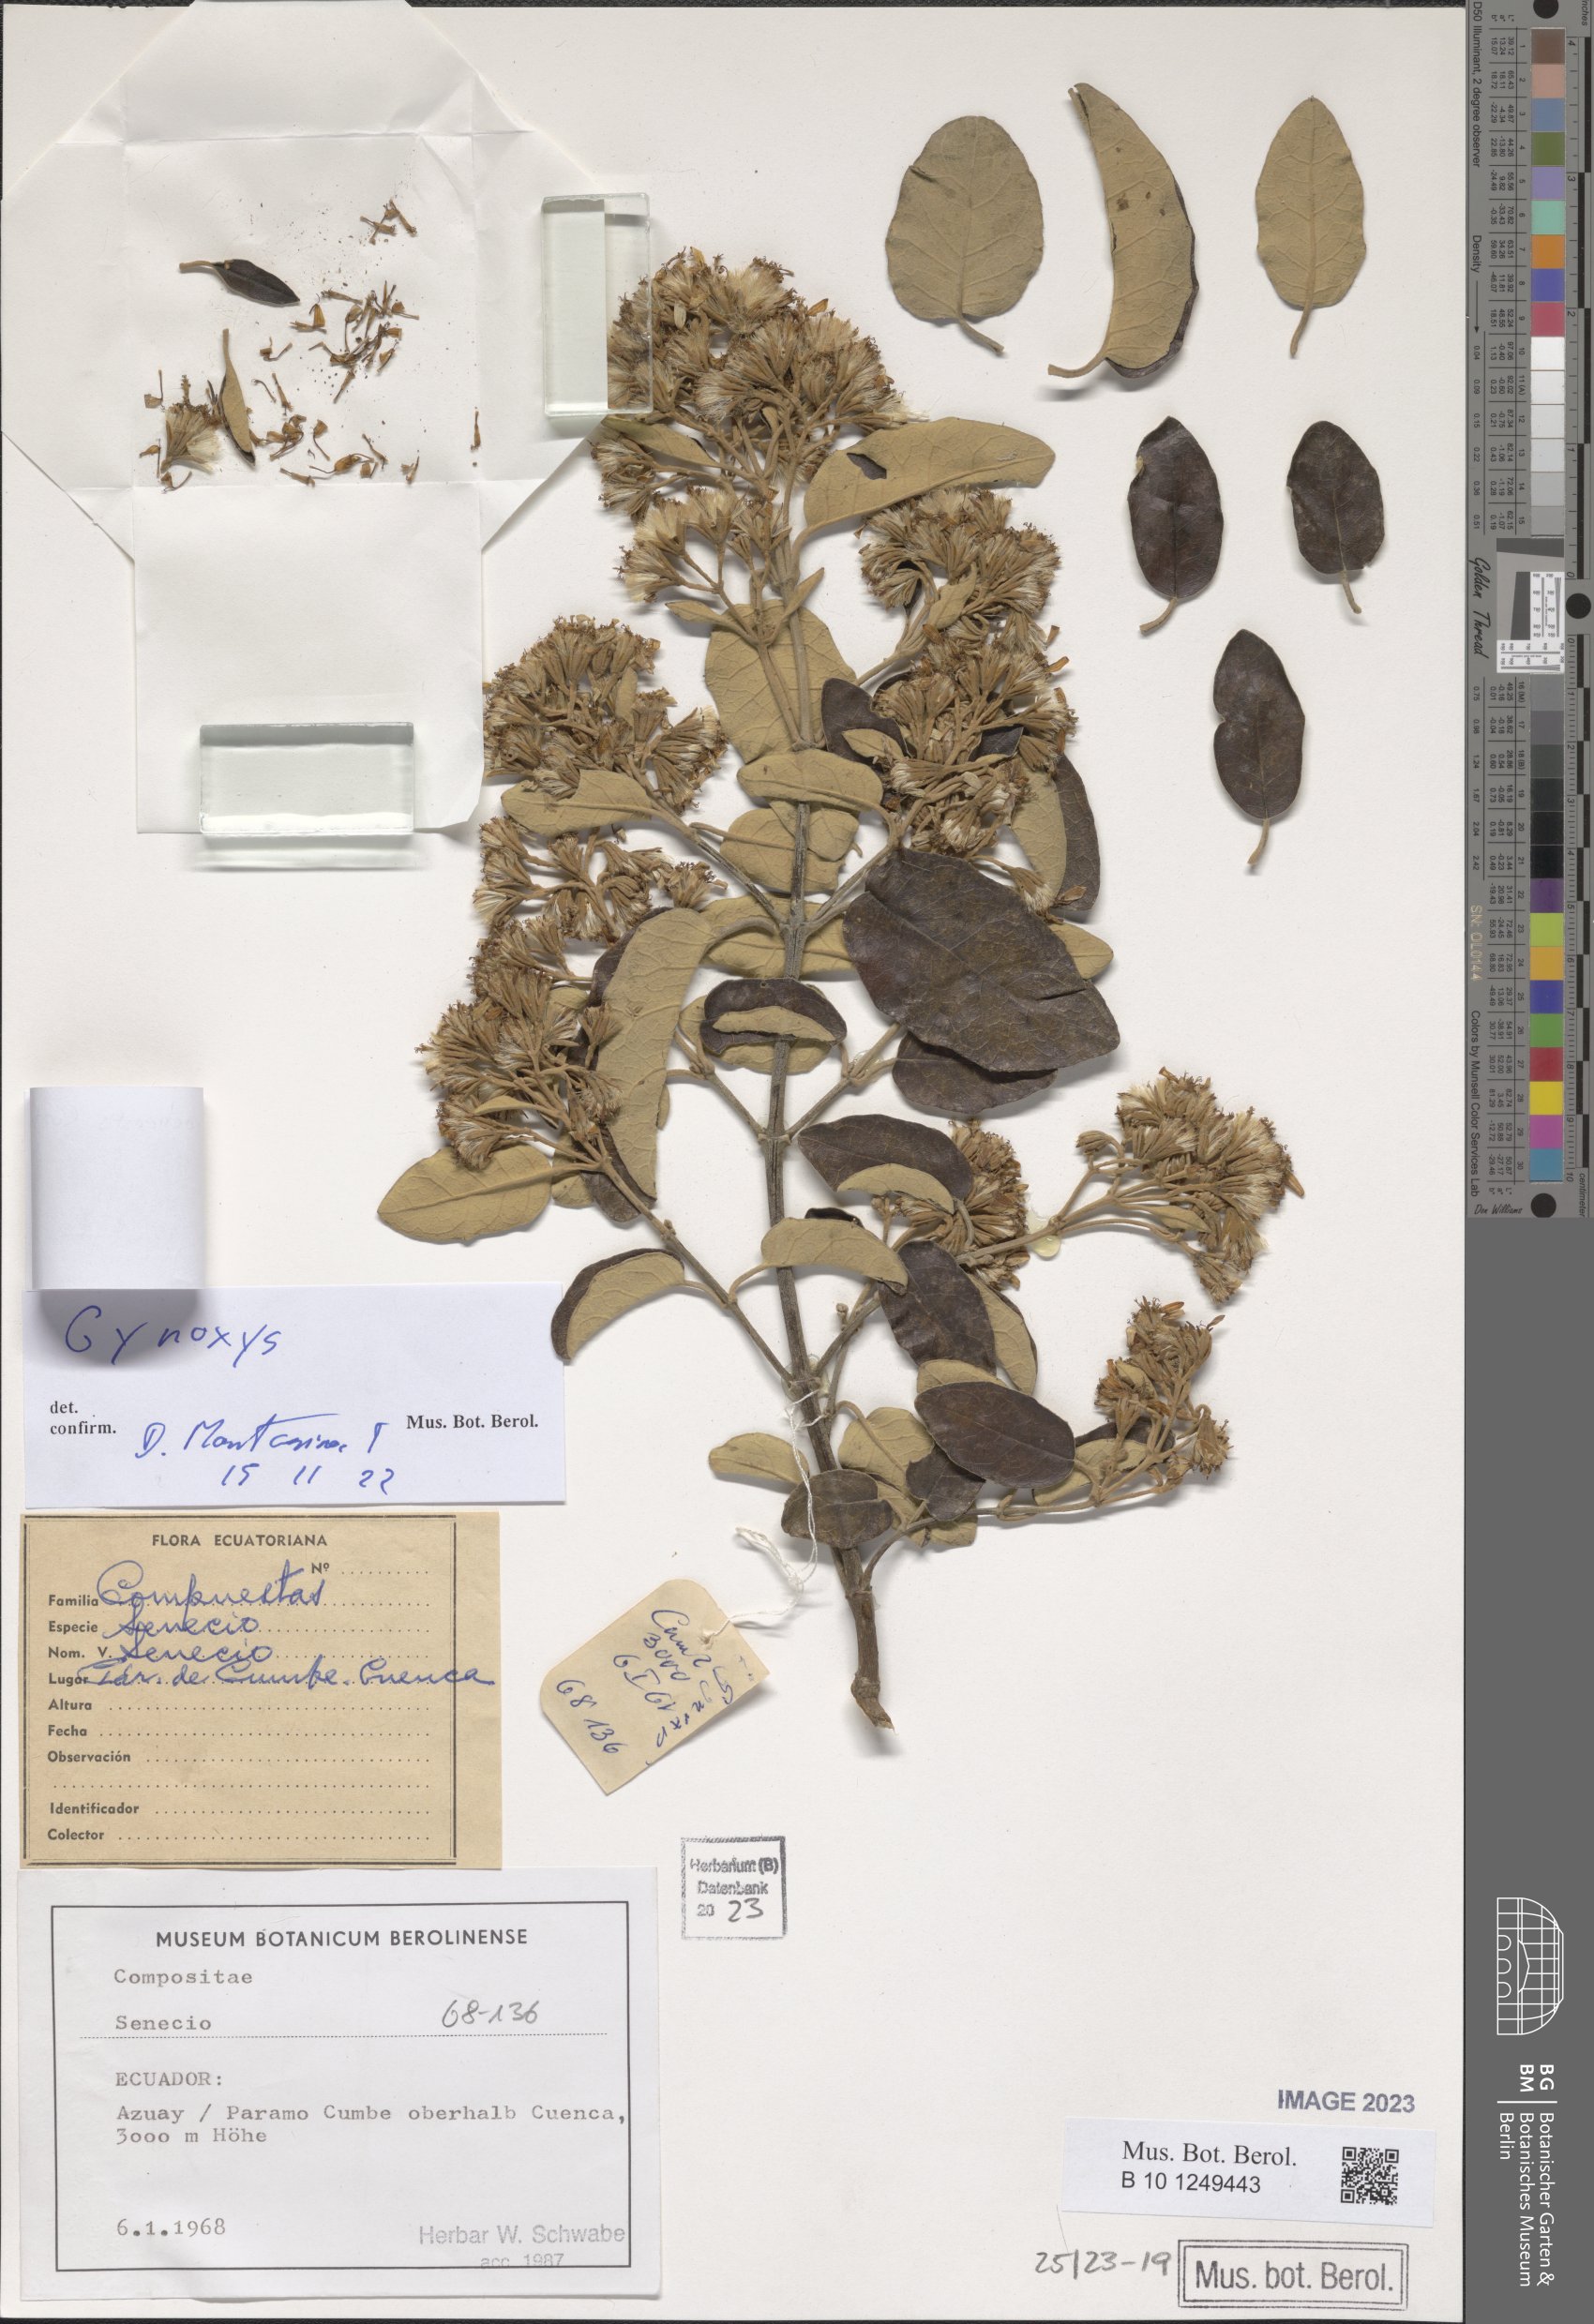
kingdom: Plantae
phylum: Tracheophyta
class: Magnoliopsida
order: Asterales
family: Asteraceae
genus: Gynoxys
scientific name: Gynoxys cuicochensis
